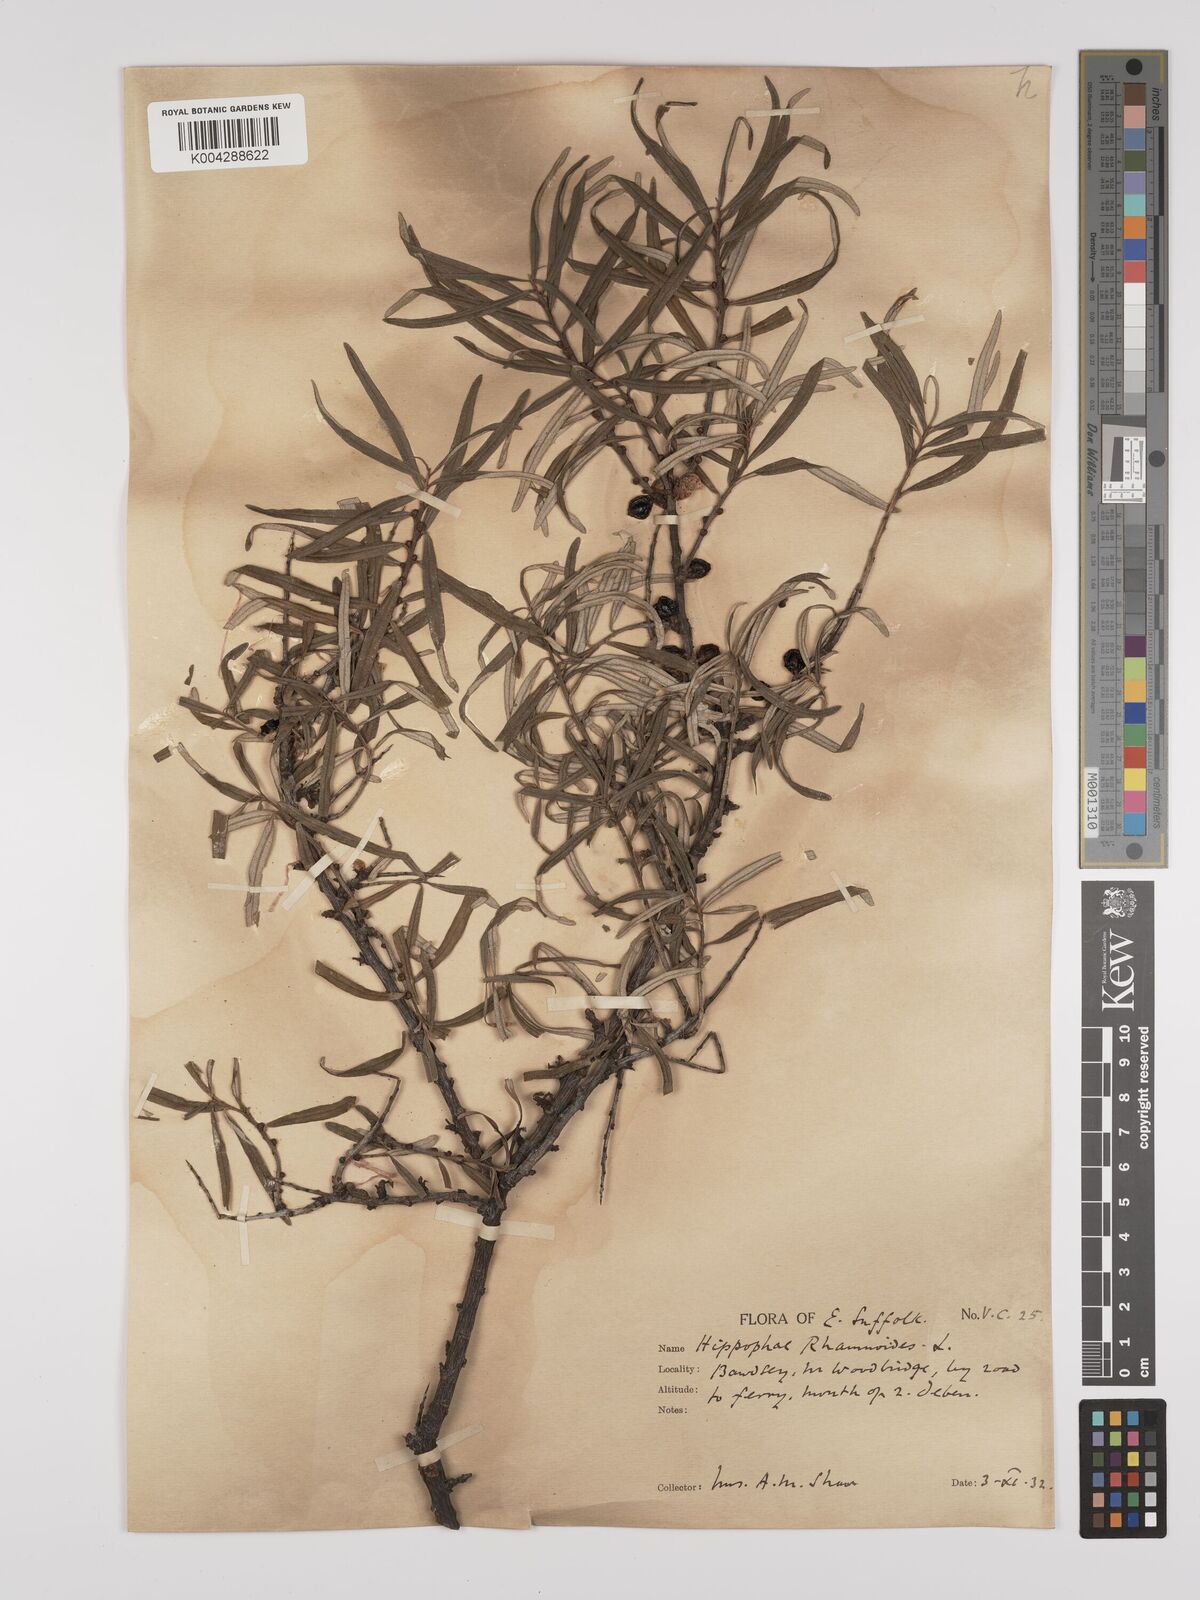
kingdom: Plantae
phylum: Tracheophyta
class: Magnoliopsida
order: Rosales
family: Elaeagnaceae
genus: Hippophae
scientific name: Hippophae rhamnoides
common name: Sea-buckthorn
